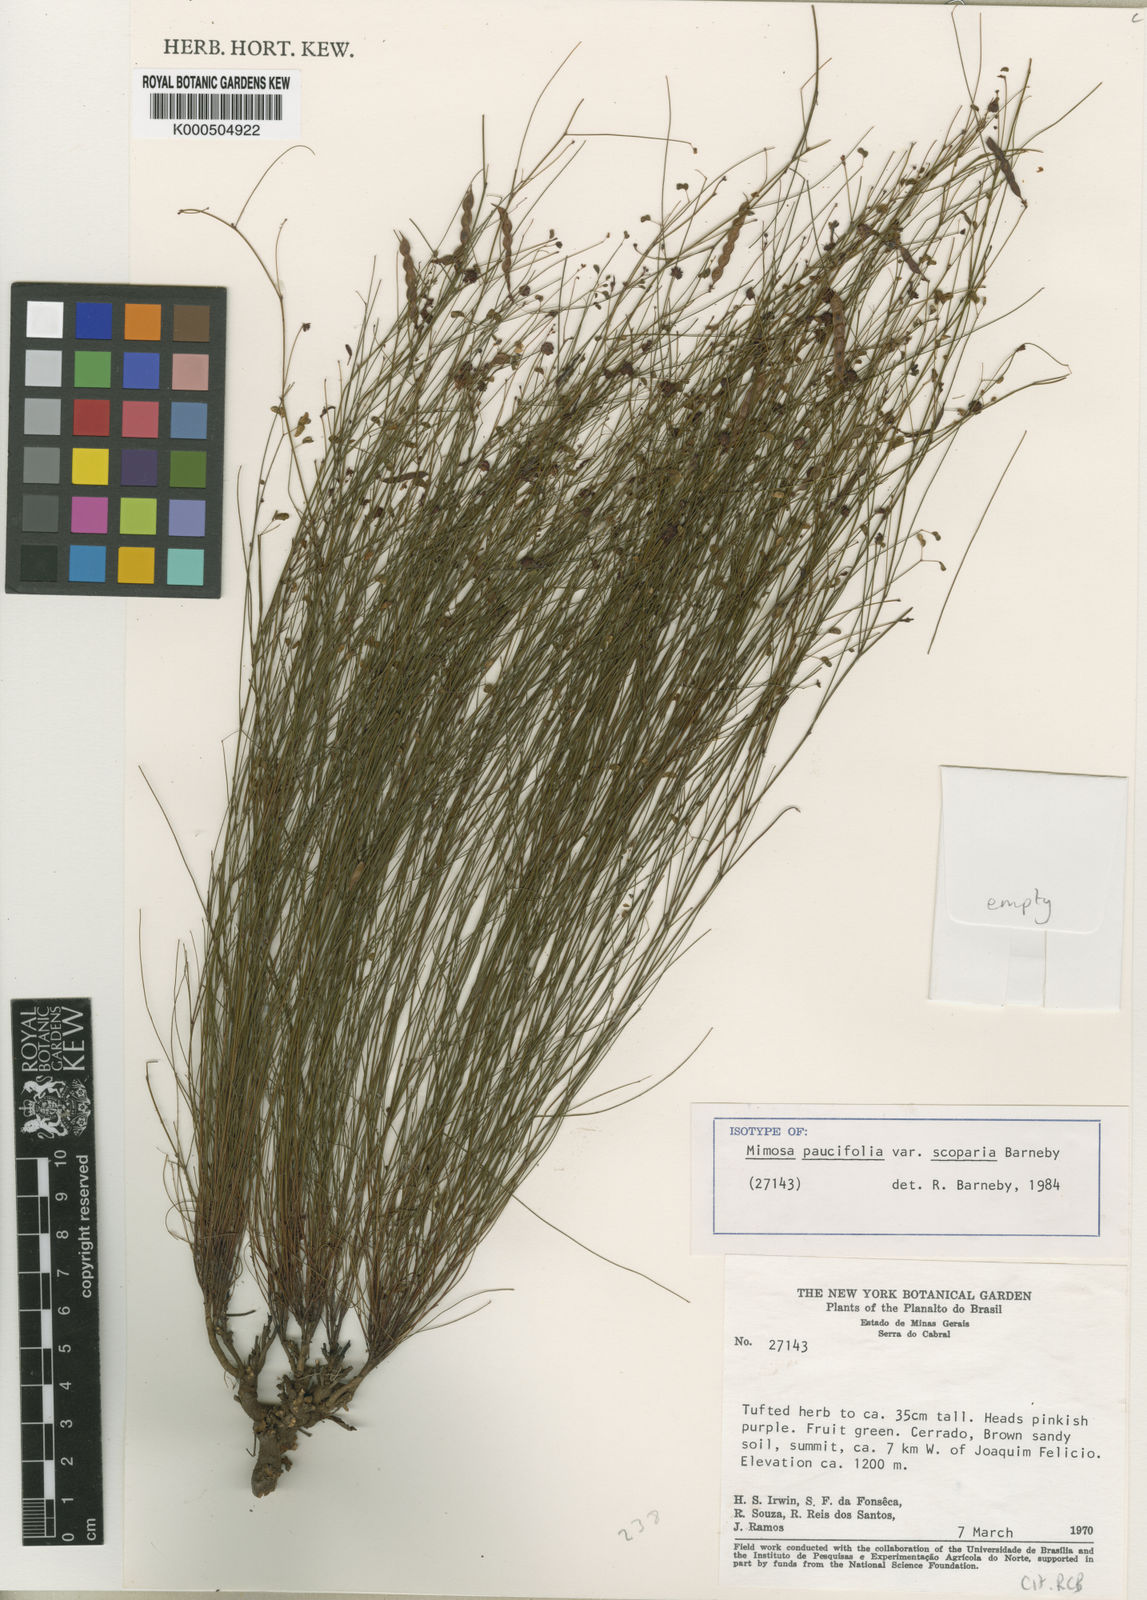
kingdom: Plantae
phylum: Tracheophyta
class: Magnoliopsida
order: Fabales
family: Fabaceae
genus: Mimosa
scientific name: Mimosa paucifolia
